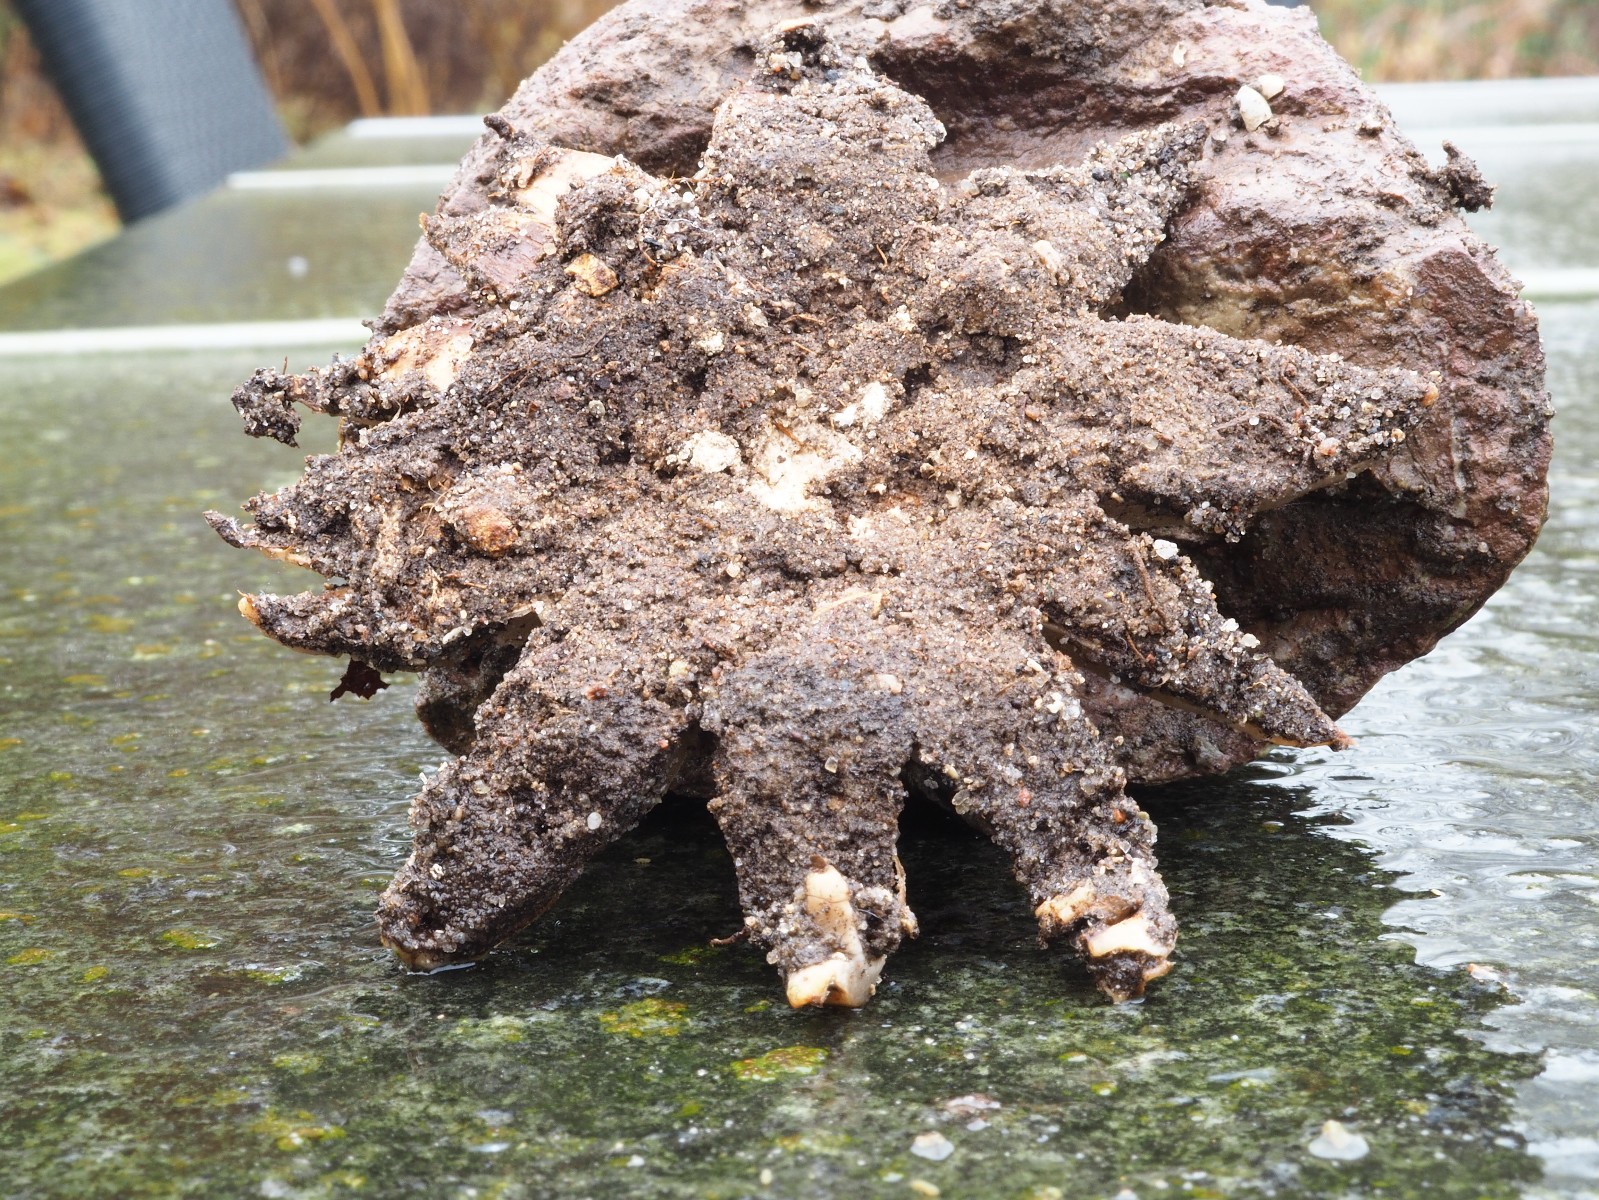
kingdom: Fungi
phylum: Basidiomycota
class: Agaricomycetes
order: Geastrales
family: Geastraceae
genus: Geastrum
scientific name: Geastrum
